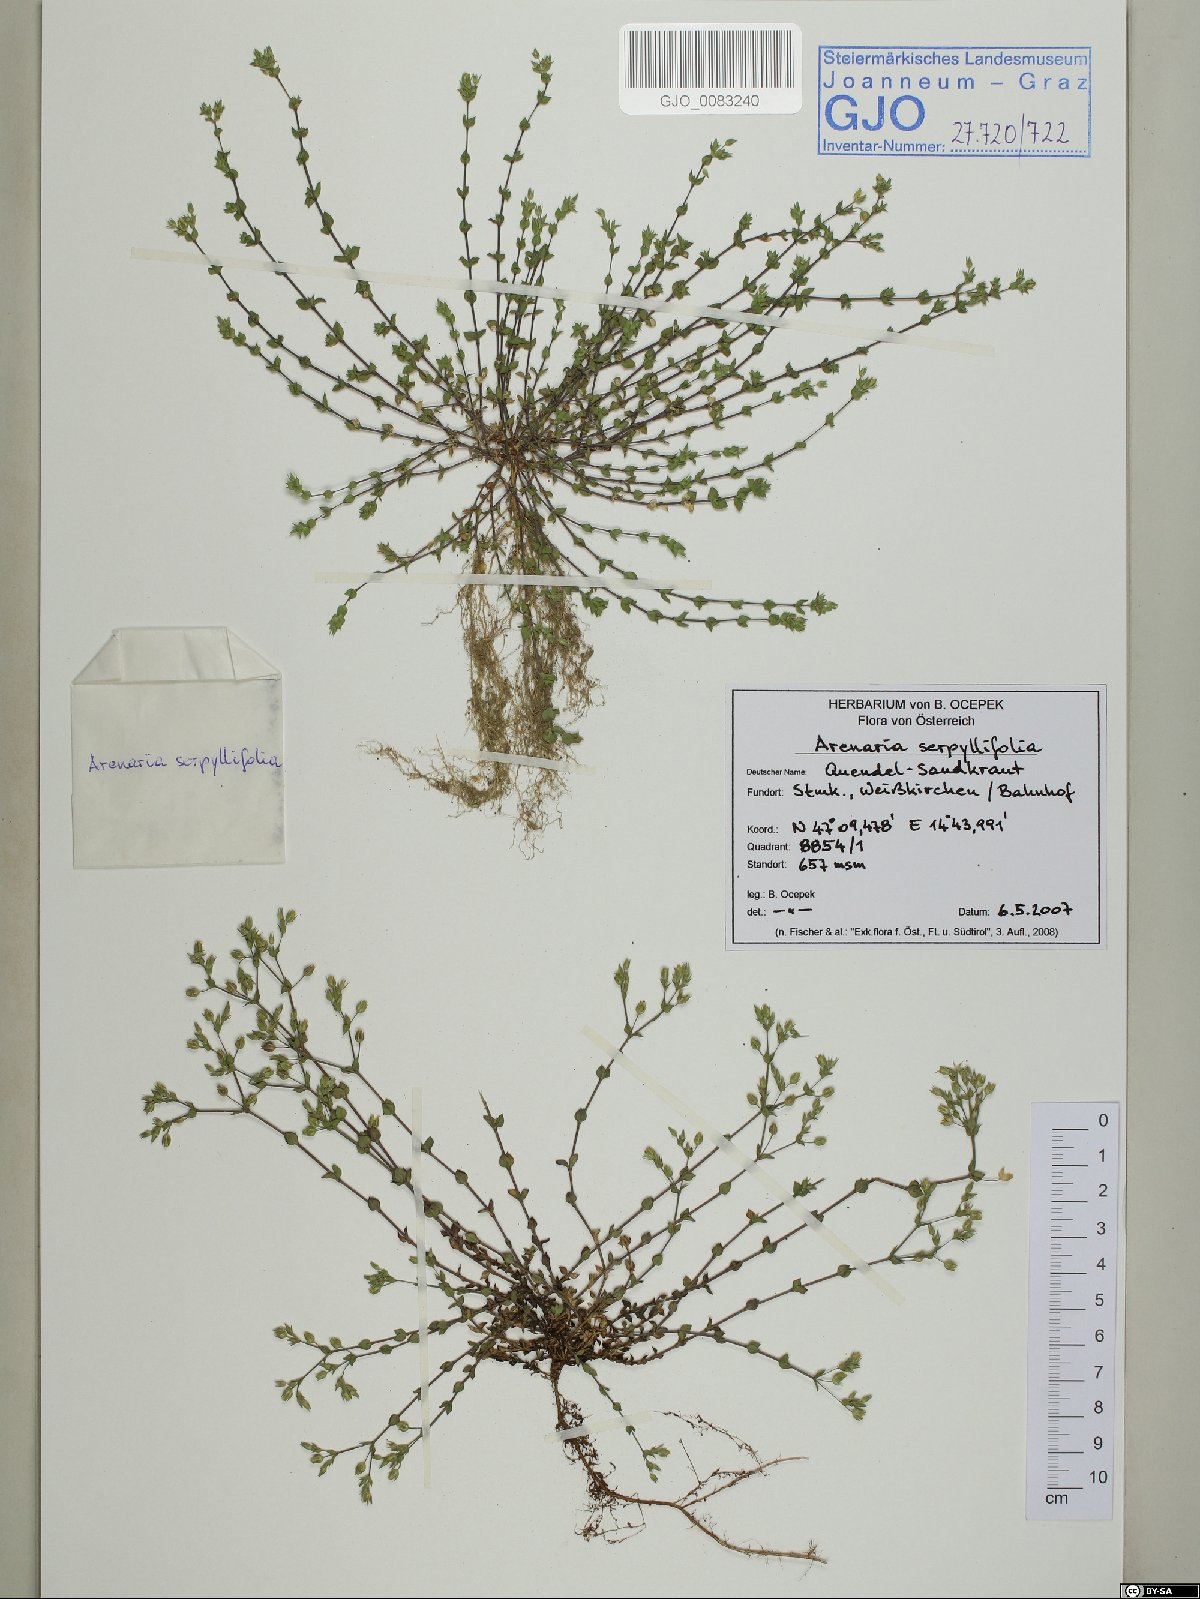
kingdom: Plantae
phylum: Tracheophyta
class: Magnoliopsida
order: Caryophyllales
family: Caryophyllaceae
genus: Arenaria
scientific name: Arenaria serpyllifolia
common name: Thyme-leaved sandwort
